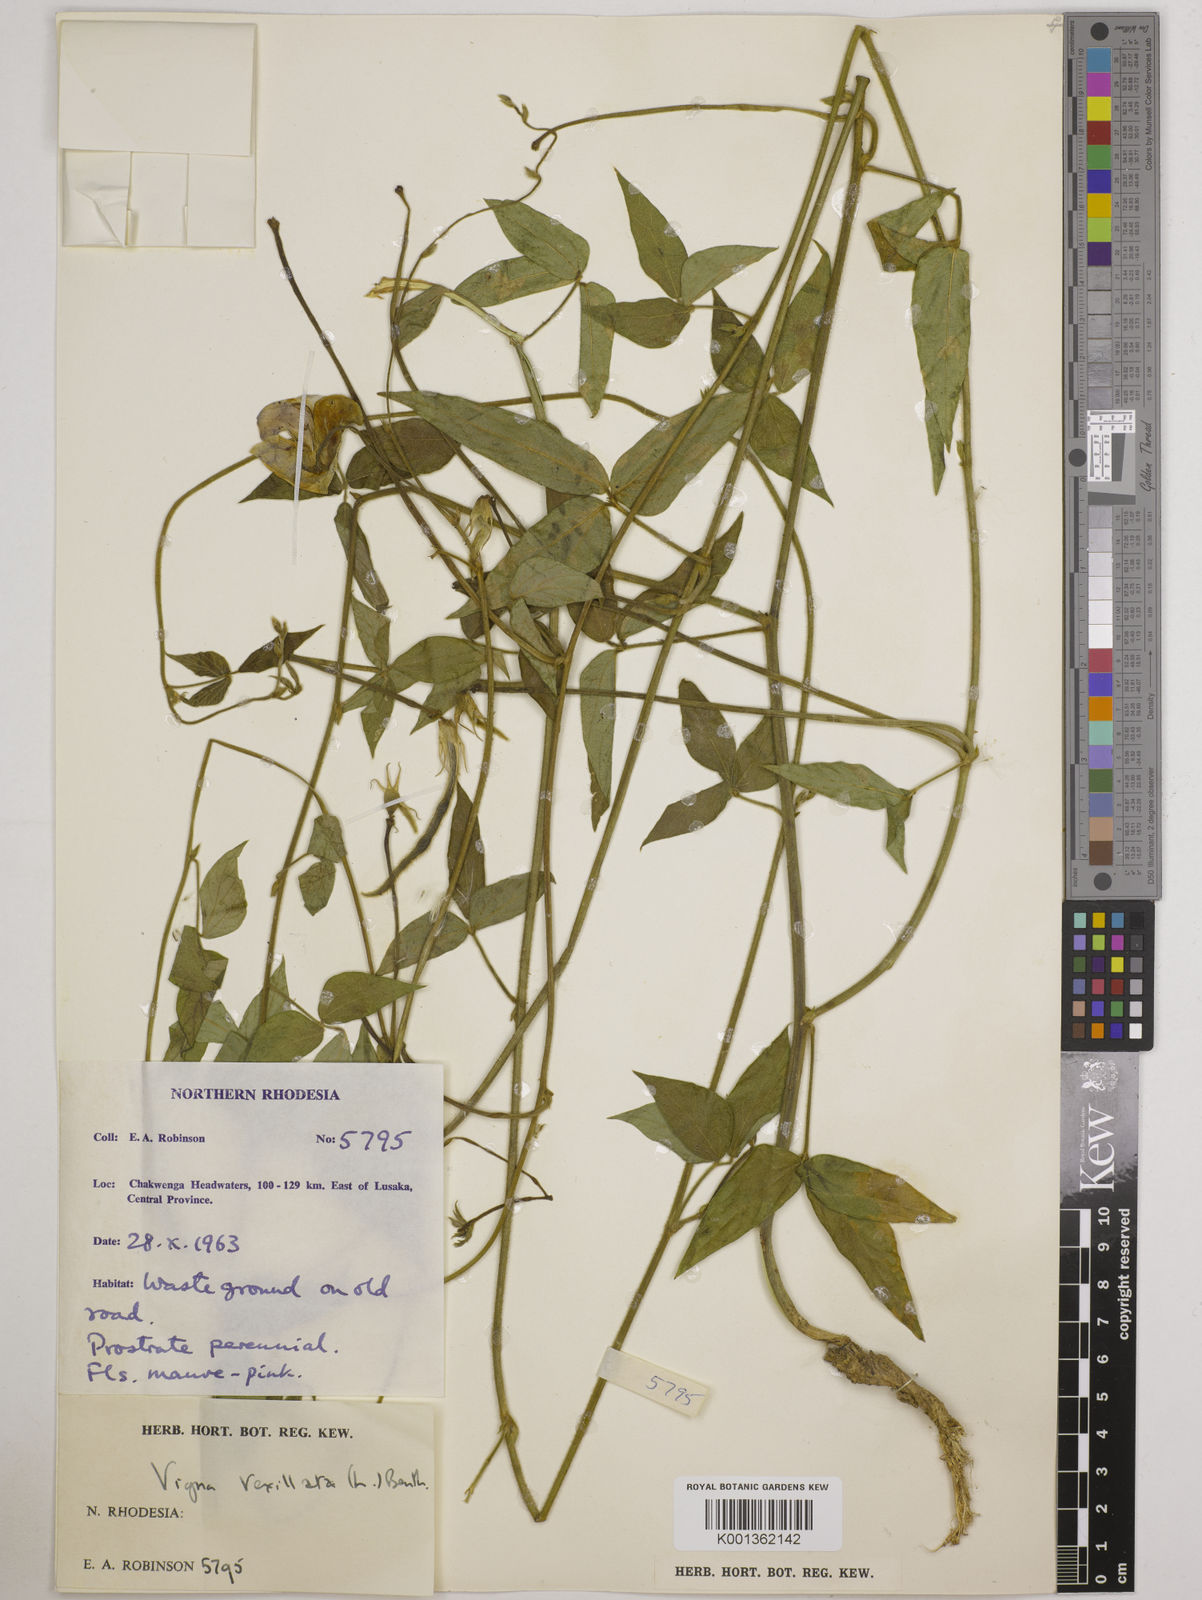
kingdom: Plantae
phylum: Tracheophyta
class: Magnoliopsida
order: Fabales
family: Fabaceae
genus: Vigna
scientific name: Vigna vexillata
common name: Zombi pea
